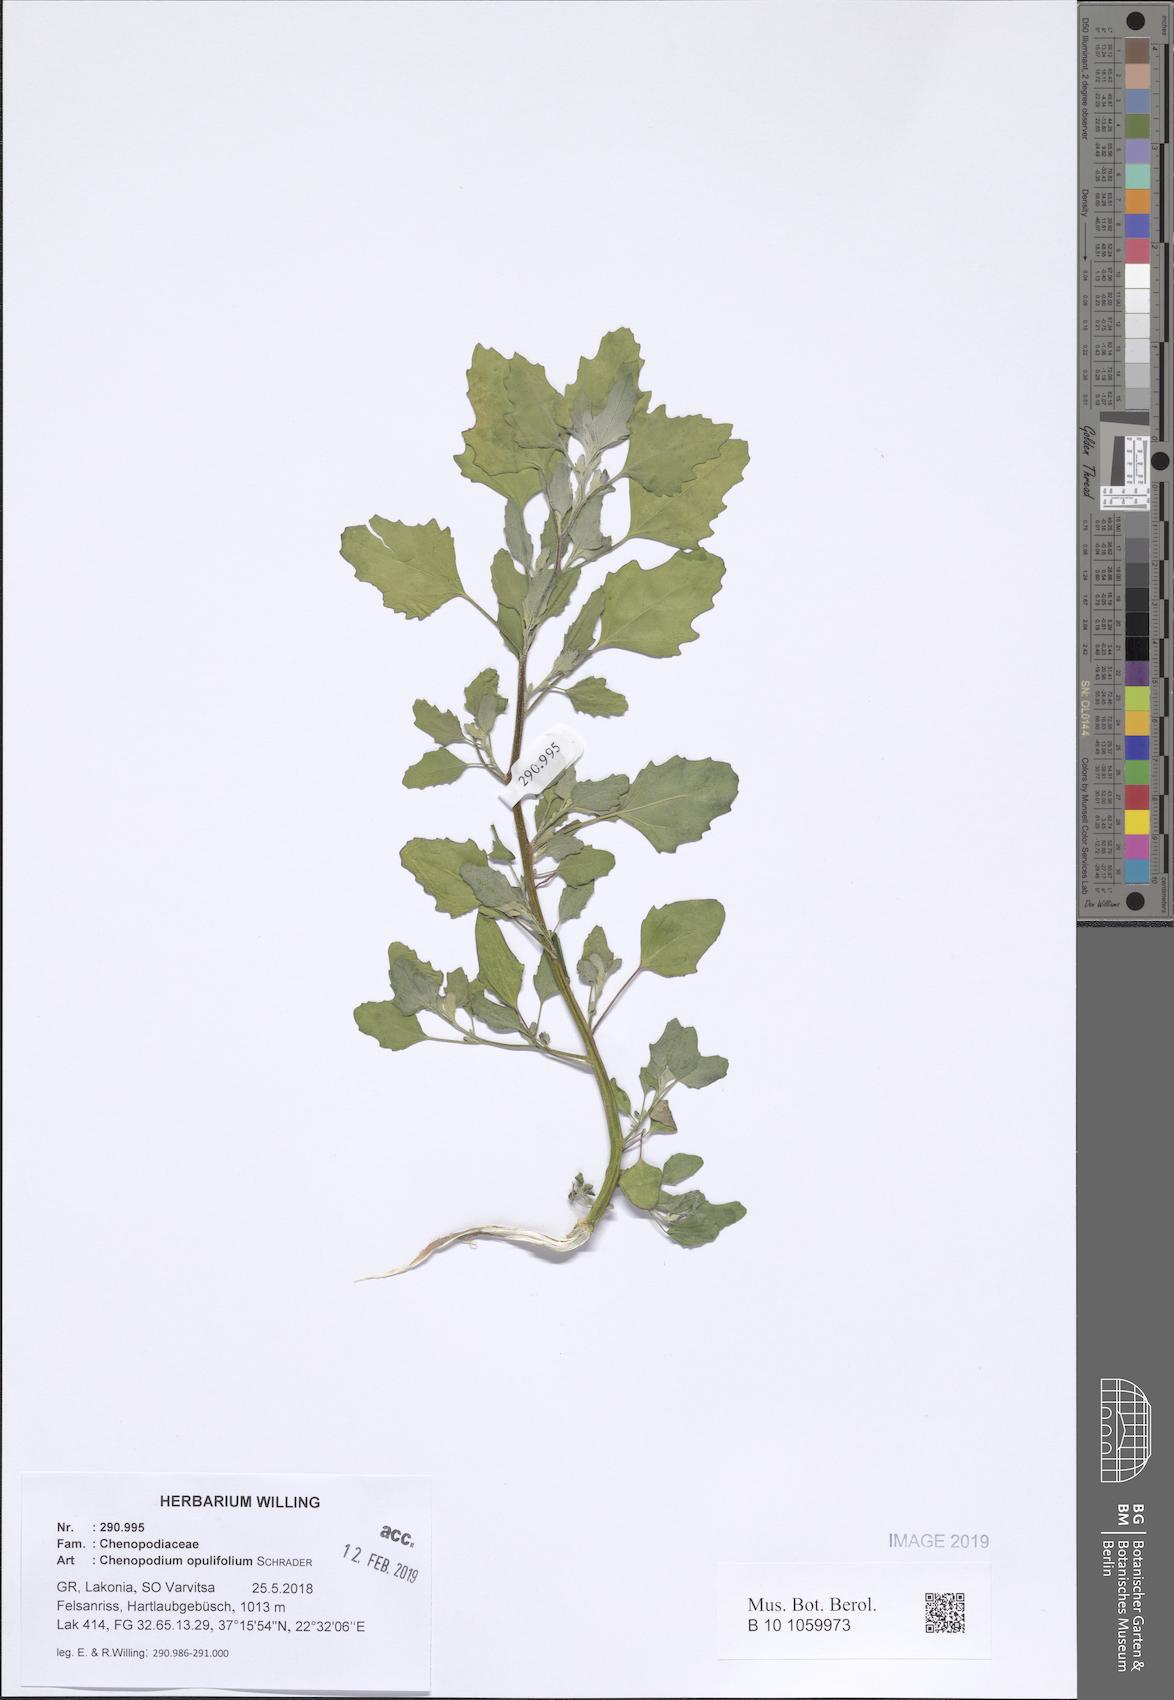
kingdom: Plantae
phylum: Tracheophyta
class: Magnoliopsida
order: Caryophyllales
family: Amaranthaceae
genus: Chenopodium
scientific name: Chenopodium album
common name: Fat-hen
